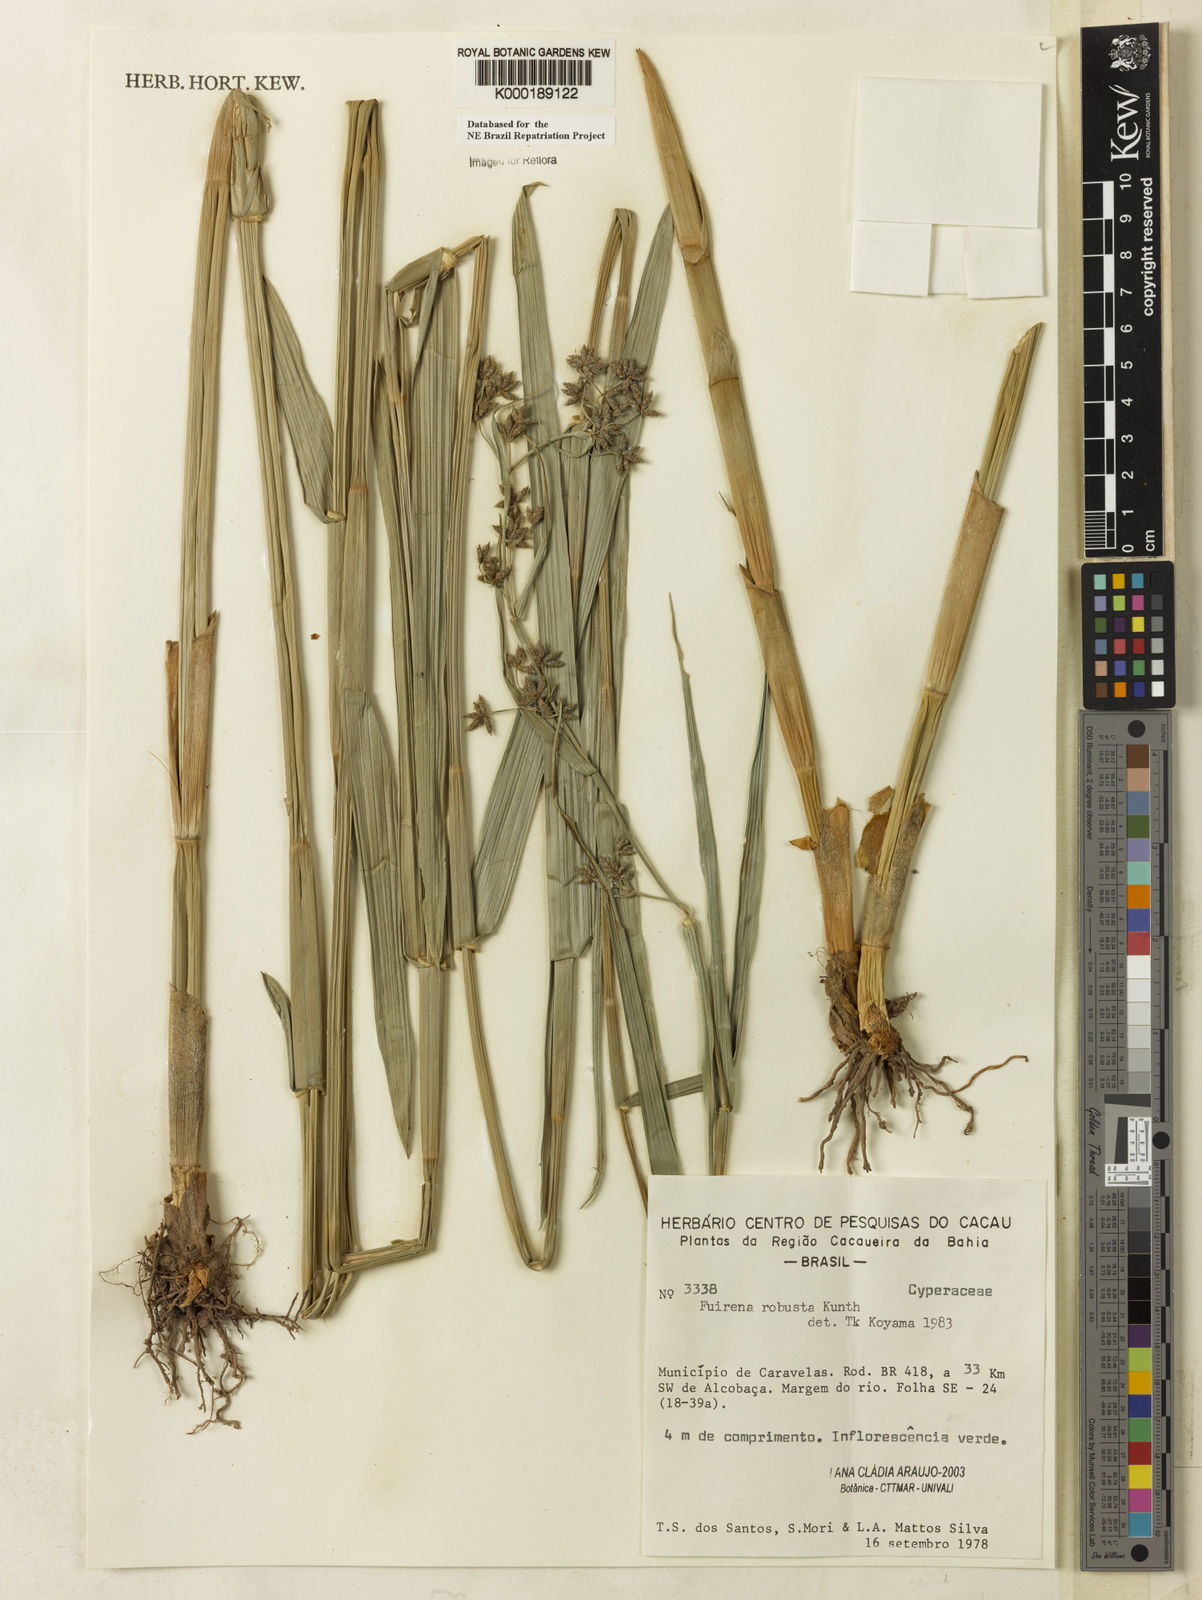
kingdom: Plantae
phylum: Tracheophyta
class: Liliopsida
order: Poales
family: Cyperaceae
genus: Fuirena
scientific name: Fuirena robusta
